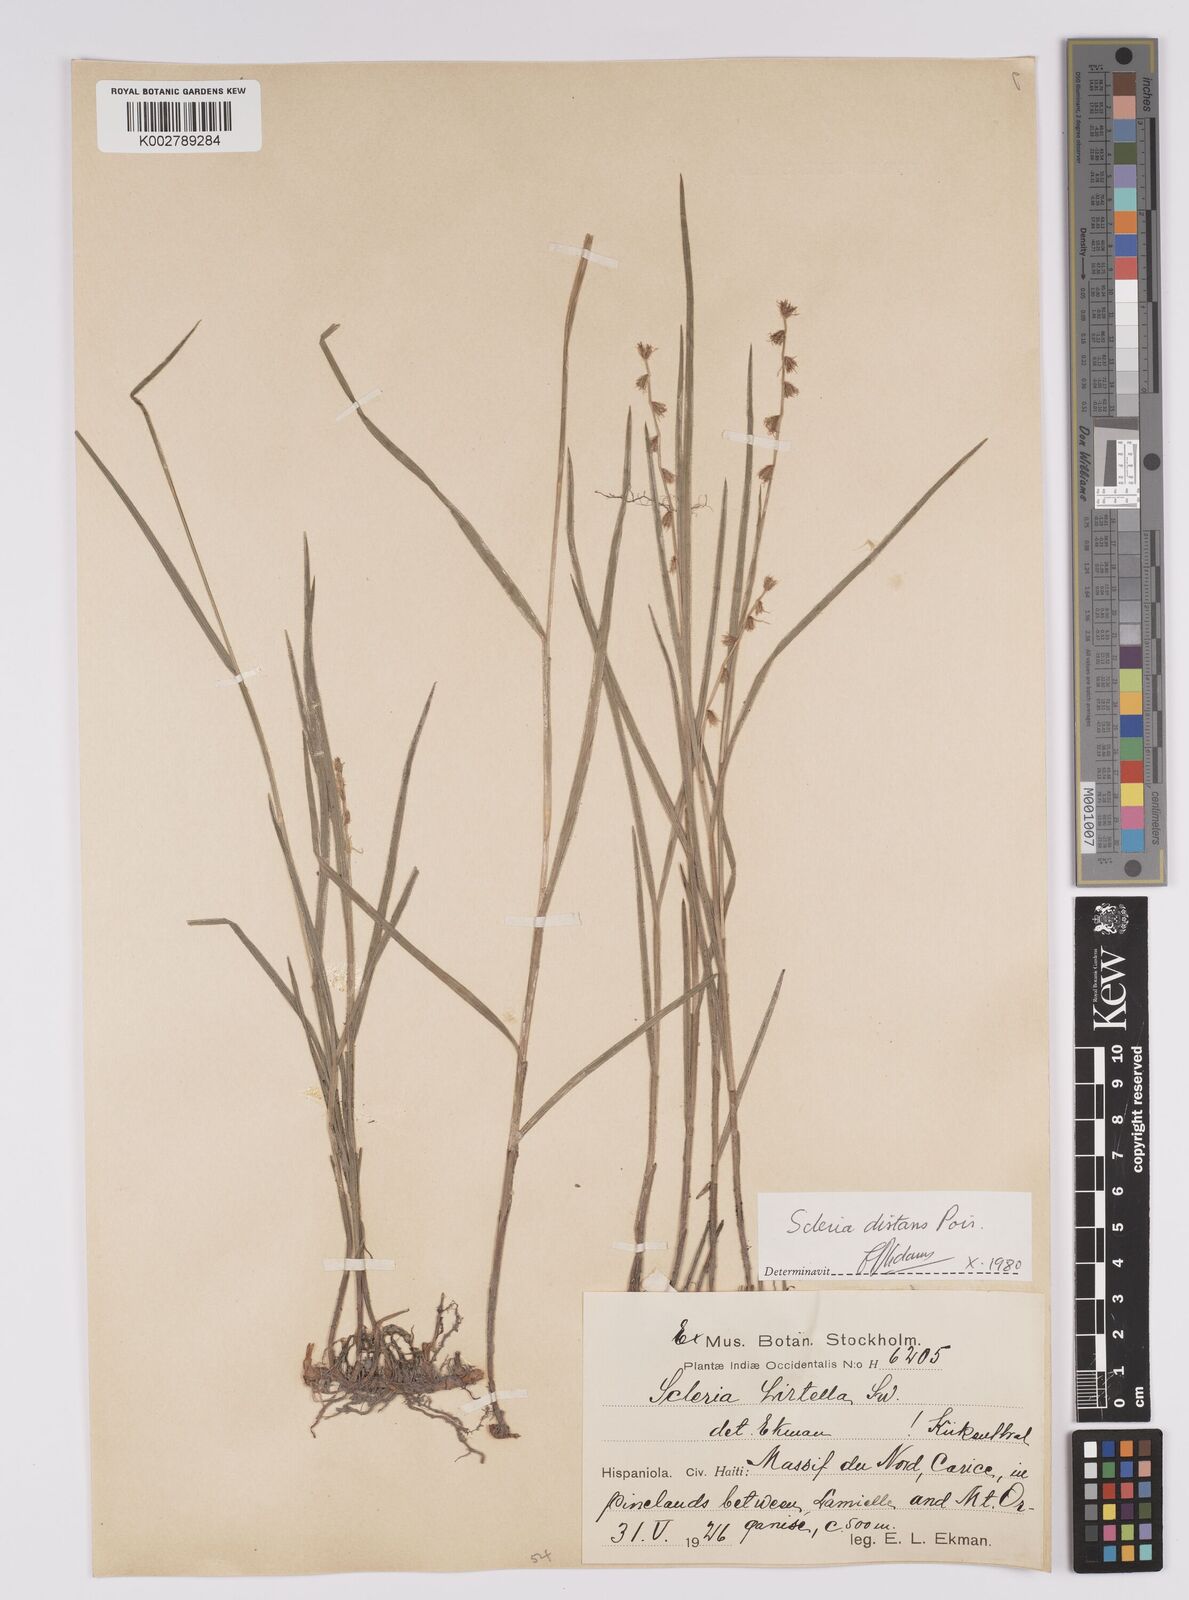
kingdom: Plantae
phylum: Tracheophyta
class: Liliopsida
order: Poales
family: Cyperaceae
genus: Scleria
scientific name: Scleria distans
